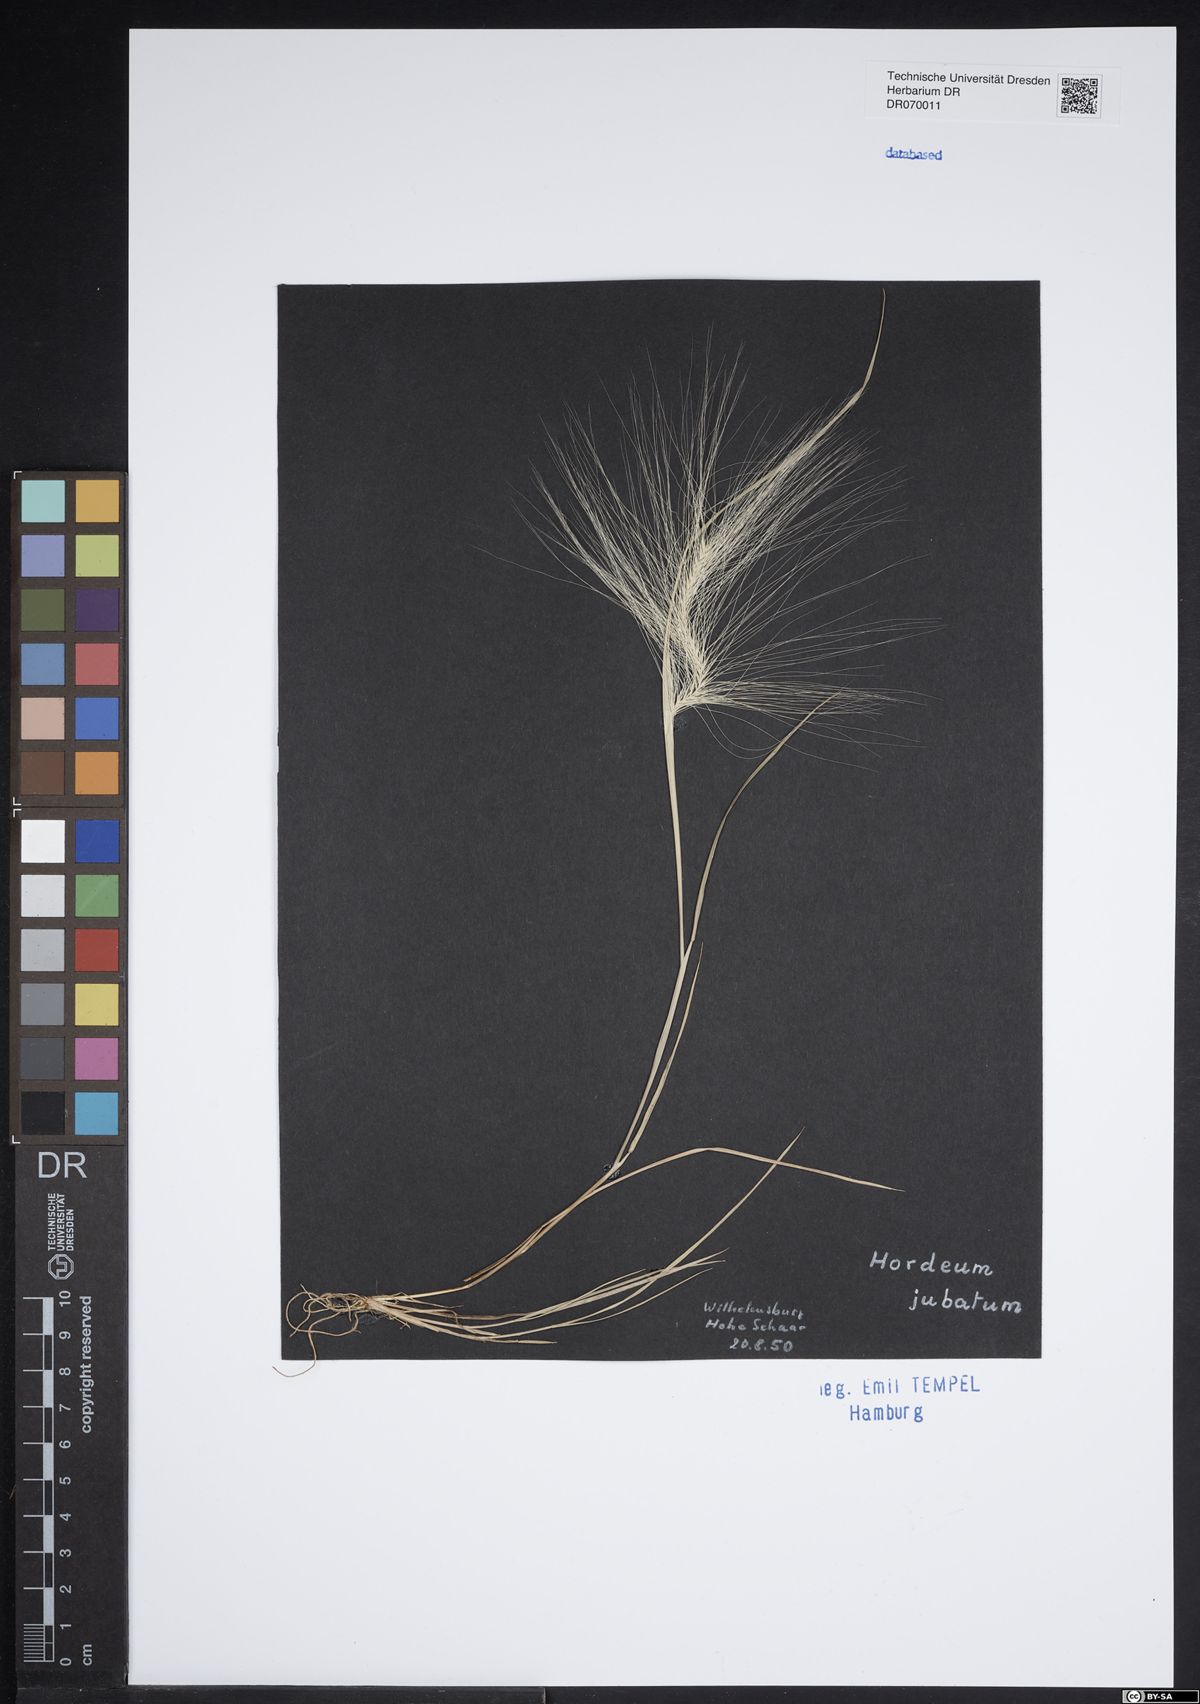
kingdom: Plantae
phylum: Tracheophyta
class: Liliopsida
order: Poales
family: Poaceae
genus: Hordeum
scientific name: Hordeum jubatum
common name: Foxtail barley
